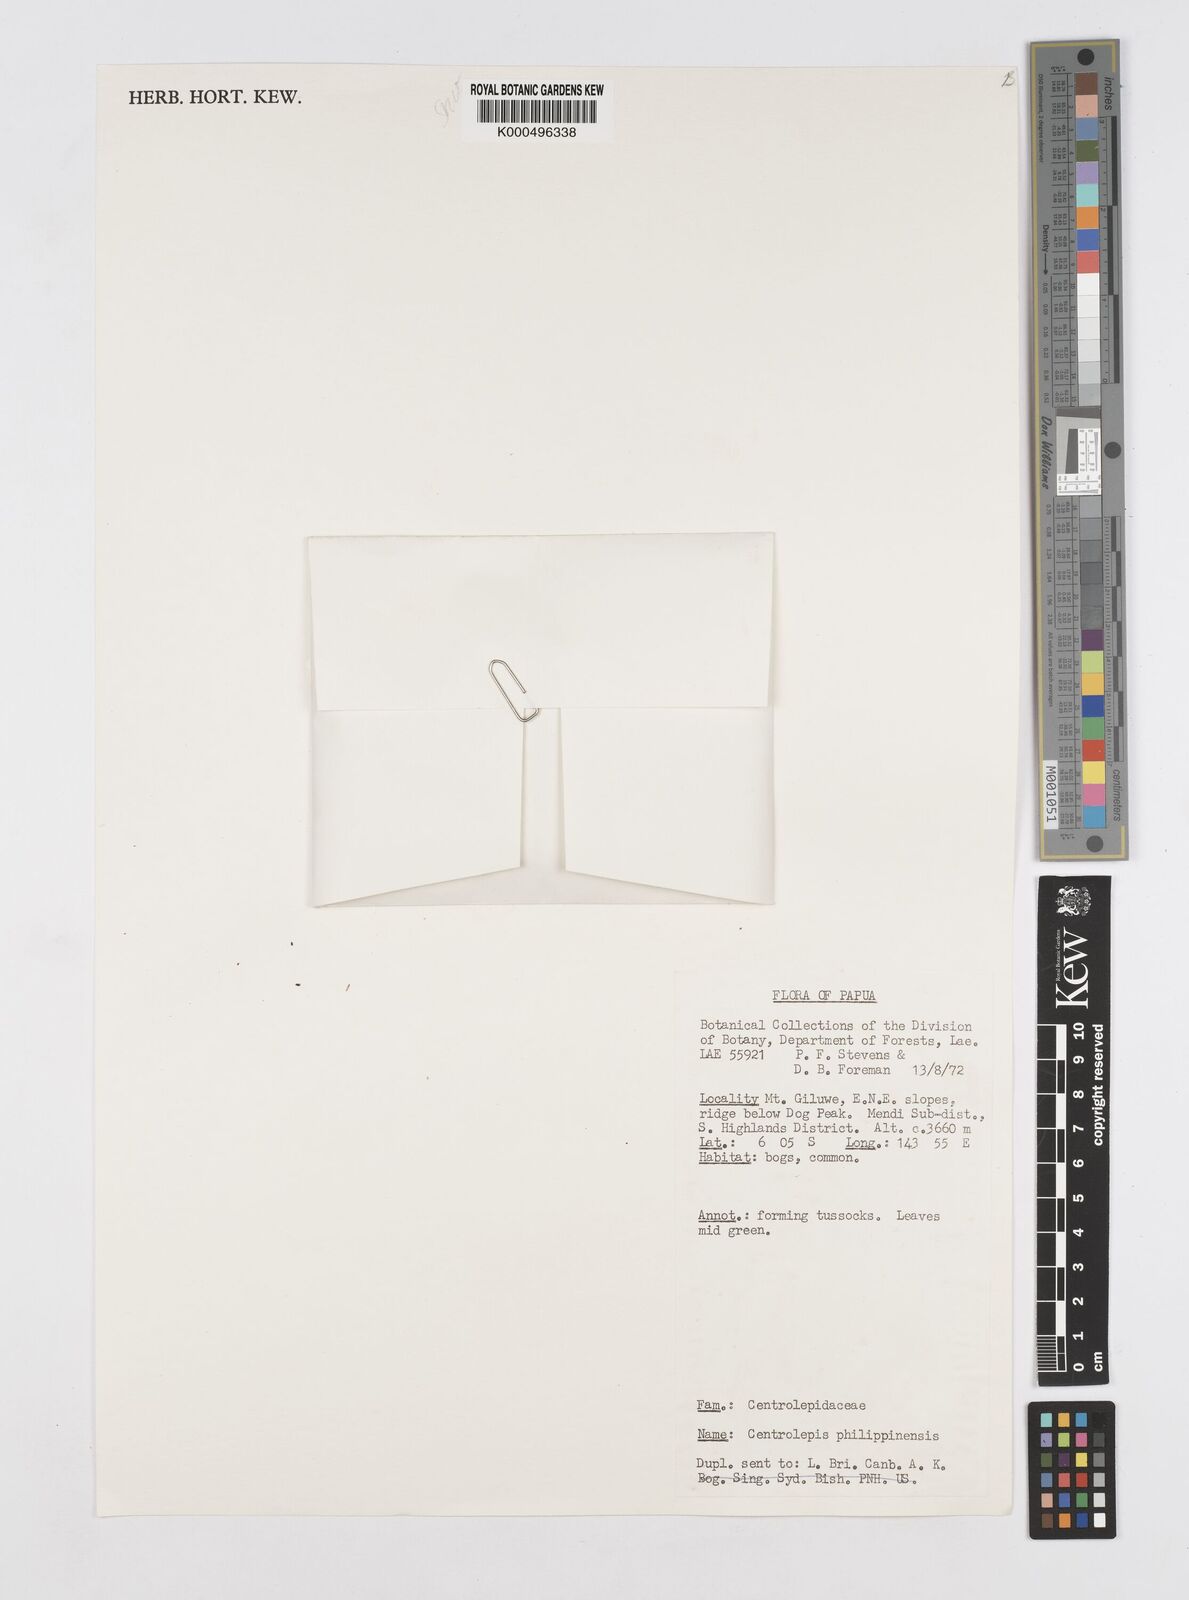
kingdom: Plantae
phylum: Tracheophyta
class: Liliopsida
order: Poales
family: Restionaceae
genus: Centrolepis
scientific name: Centrolepis philippinensis
